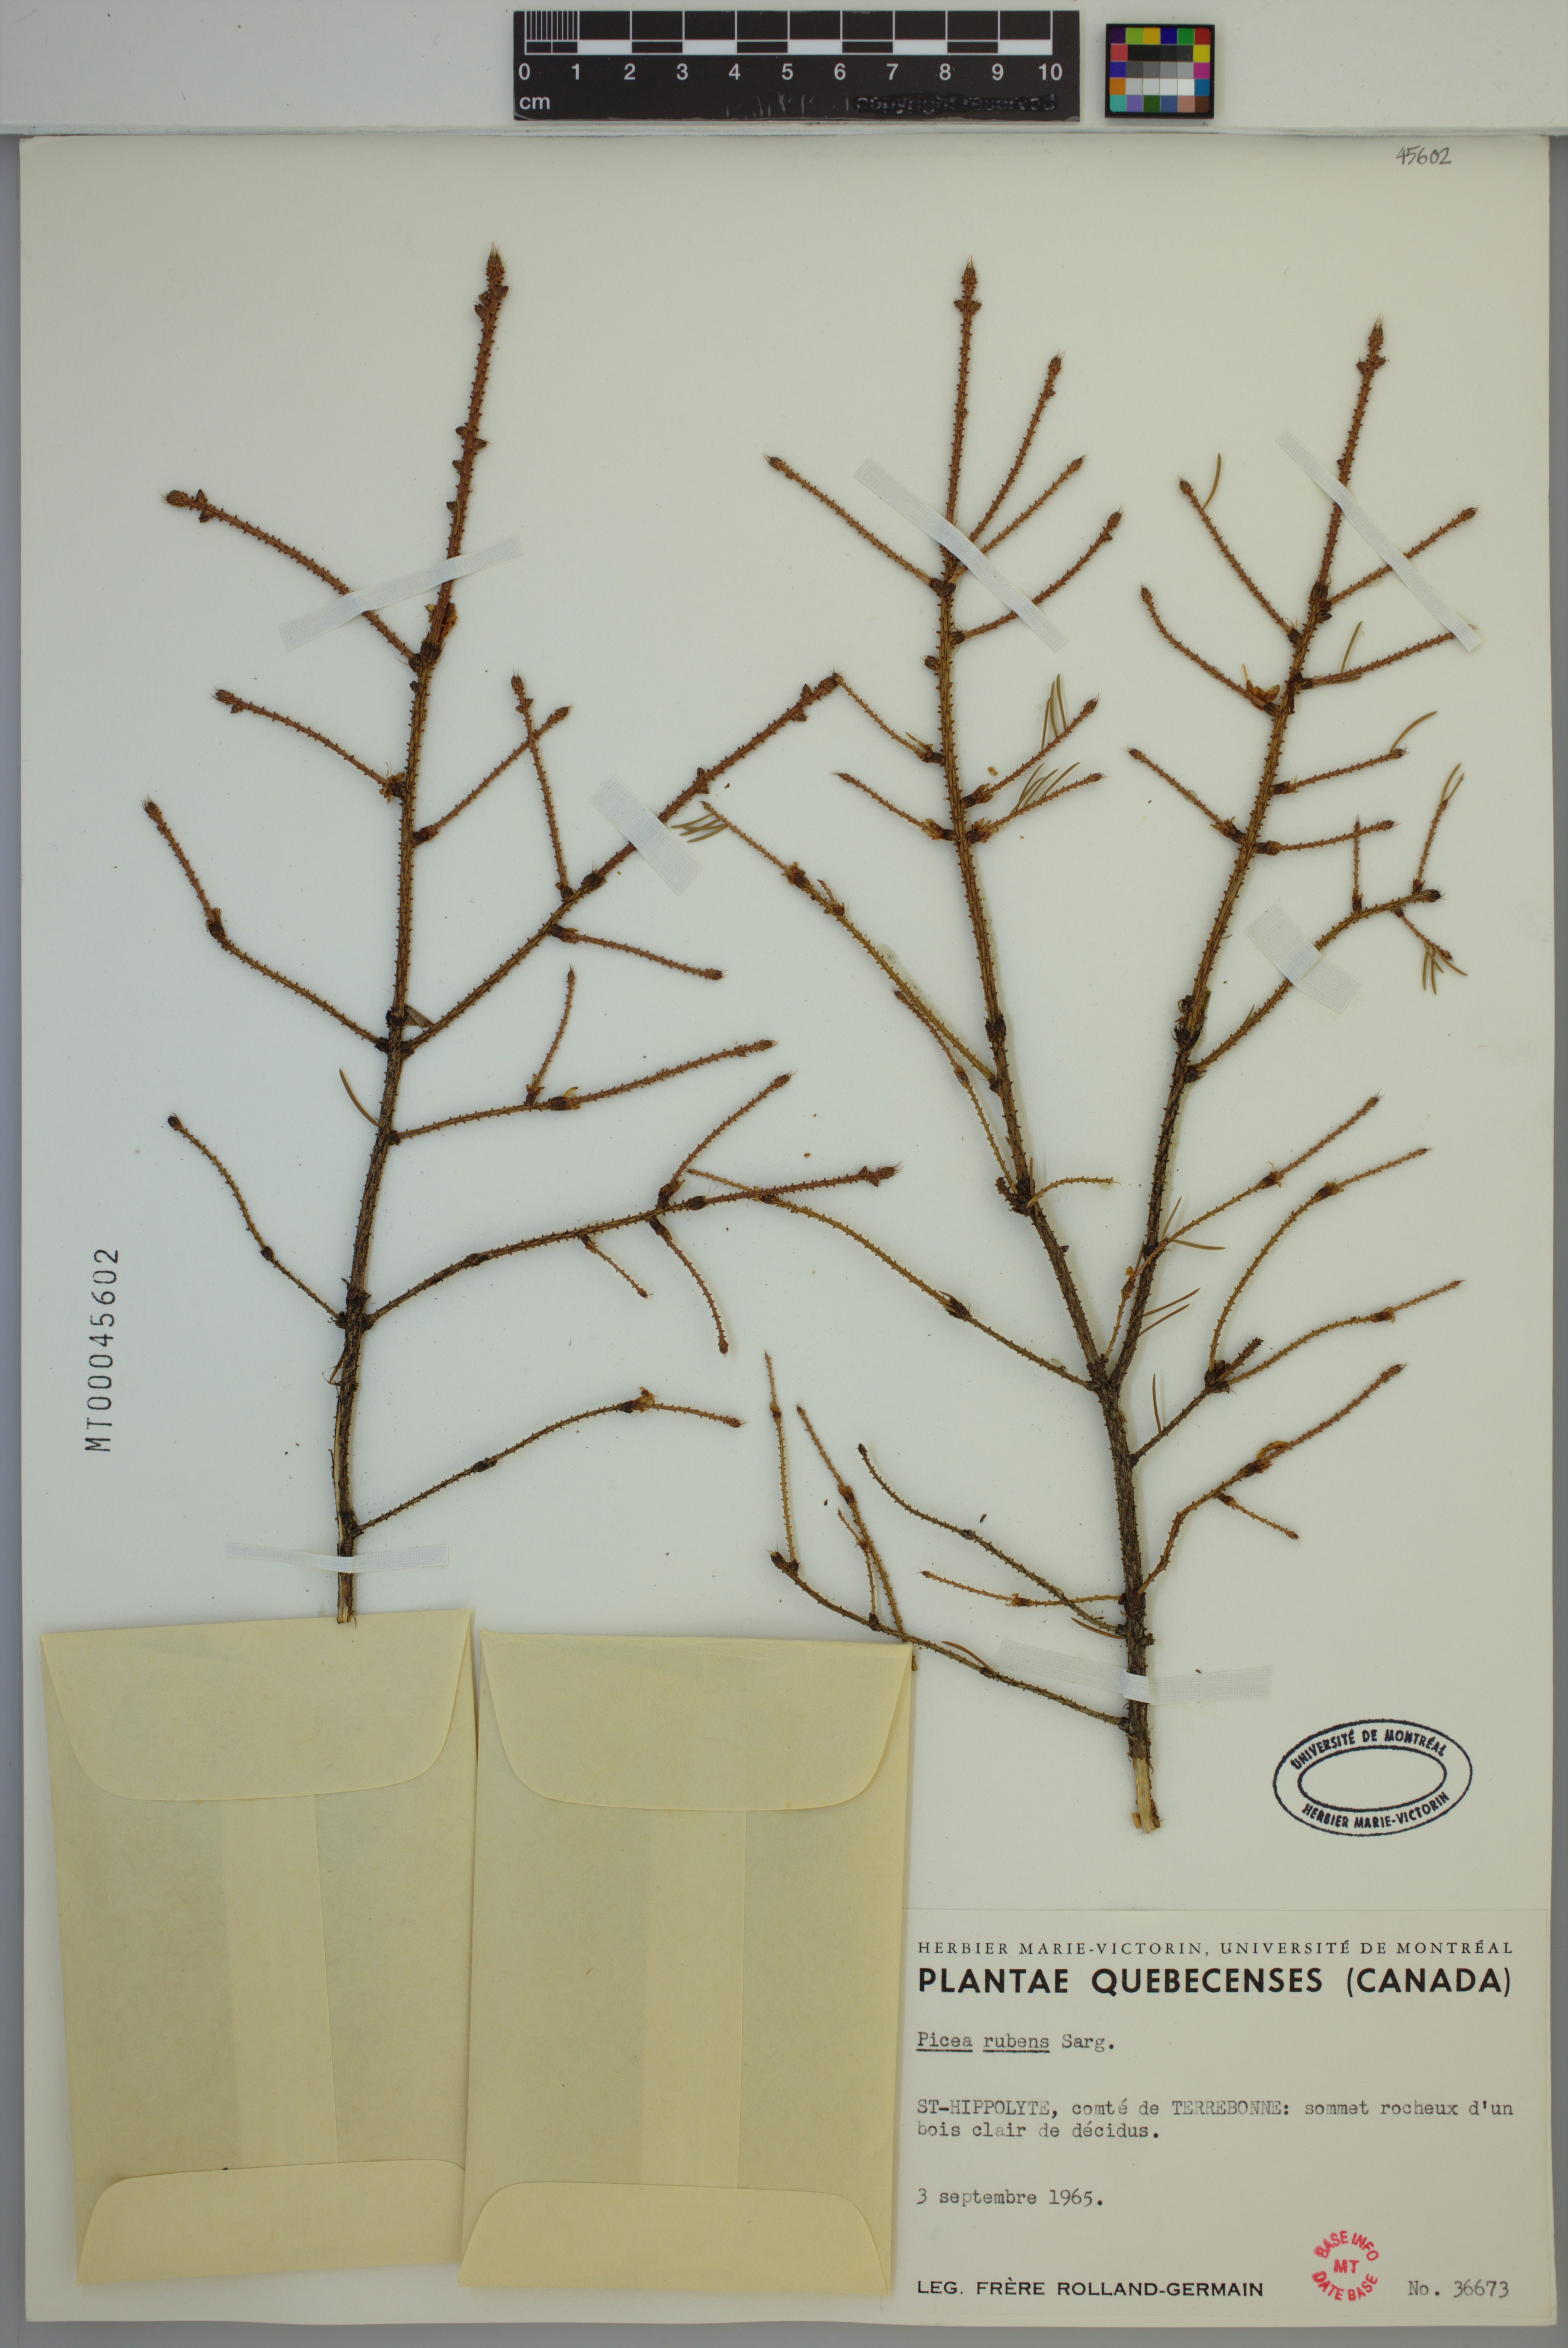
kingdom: Plantae
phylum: Tracheophyta
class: Pinopsida
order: Pinales
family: Pinaceae
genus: Picea
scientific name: Picea rubens
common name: Red spruce
